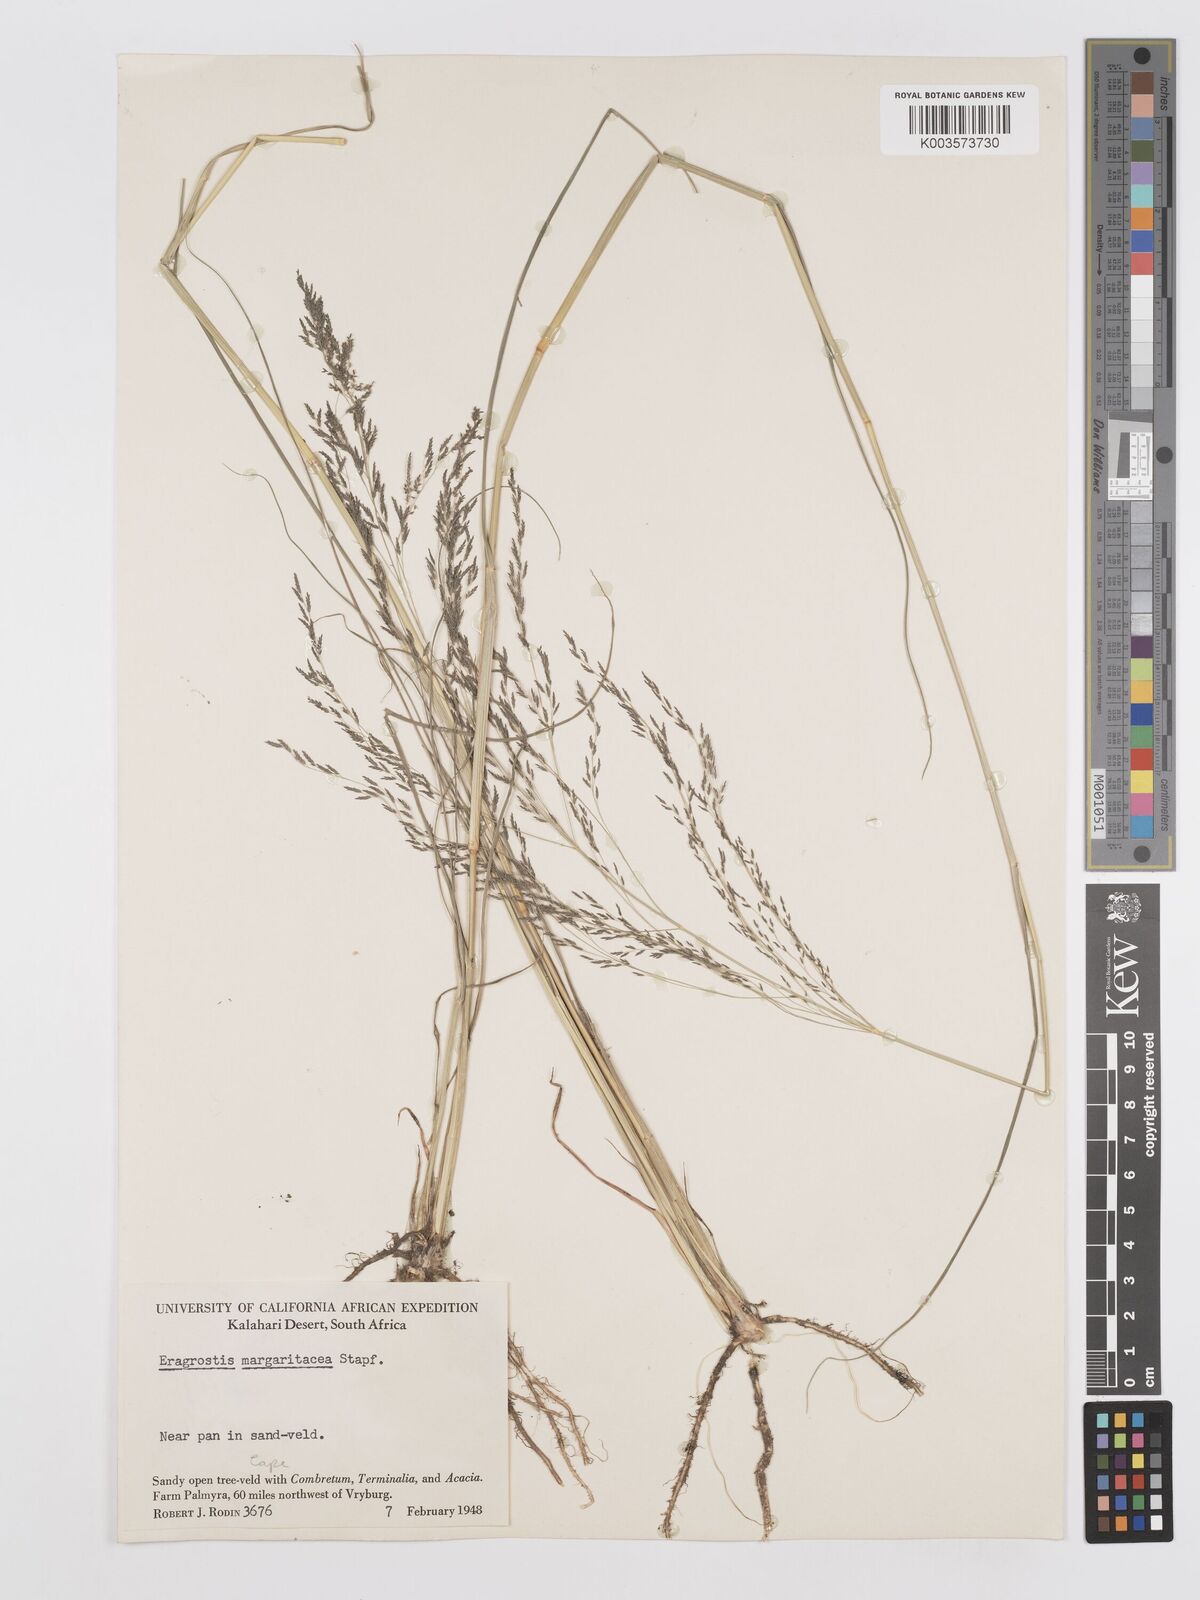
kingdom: Plantae
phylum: Tracheophyta
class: Liliopsida
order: Poales
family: Poaceae
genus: Eragrostis
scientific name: Eragrostis rotifer
